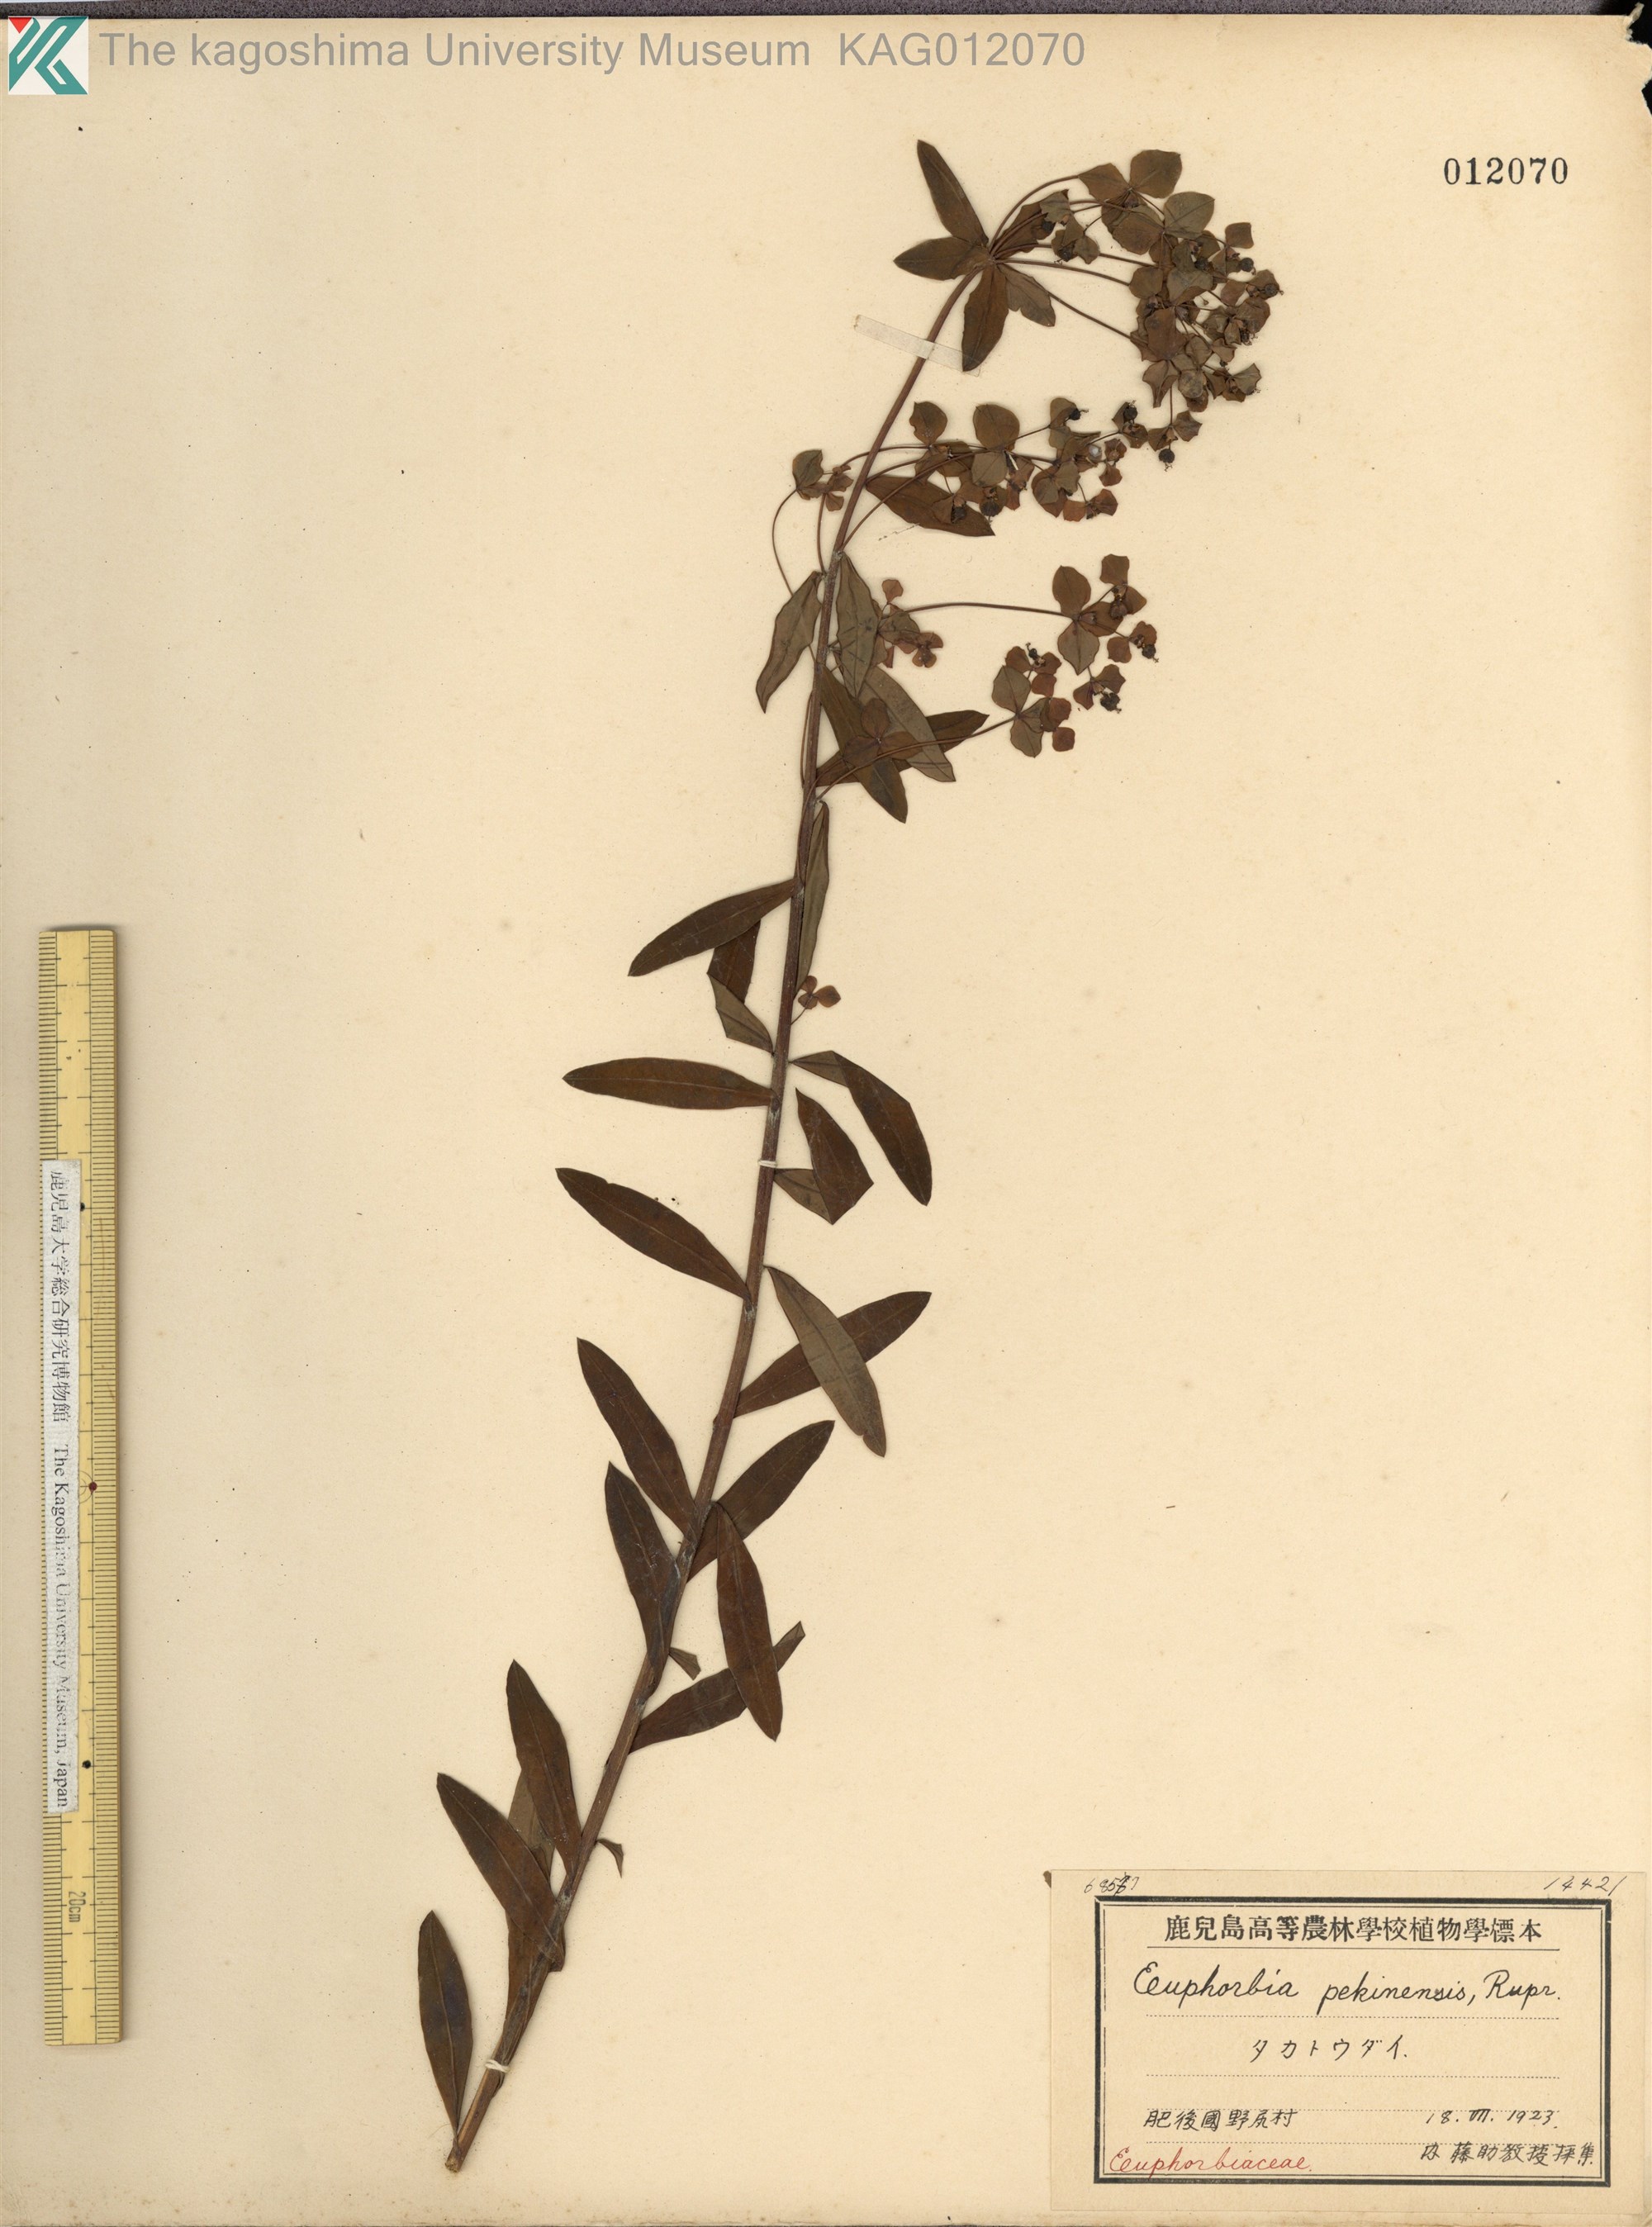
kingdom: Plantae
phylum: Tracheophyta
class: Magnoliopsida
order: Malpighiales
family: Euphorbiaceae
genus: Euphorbia
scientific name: Euphorbia pekinensis
